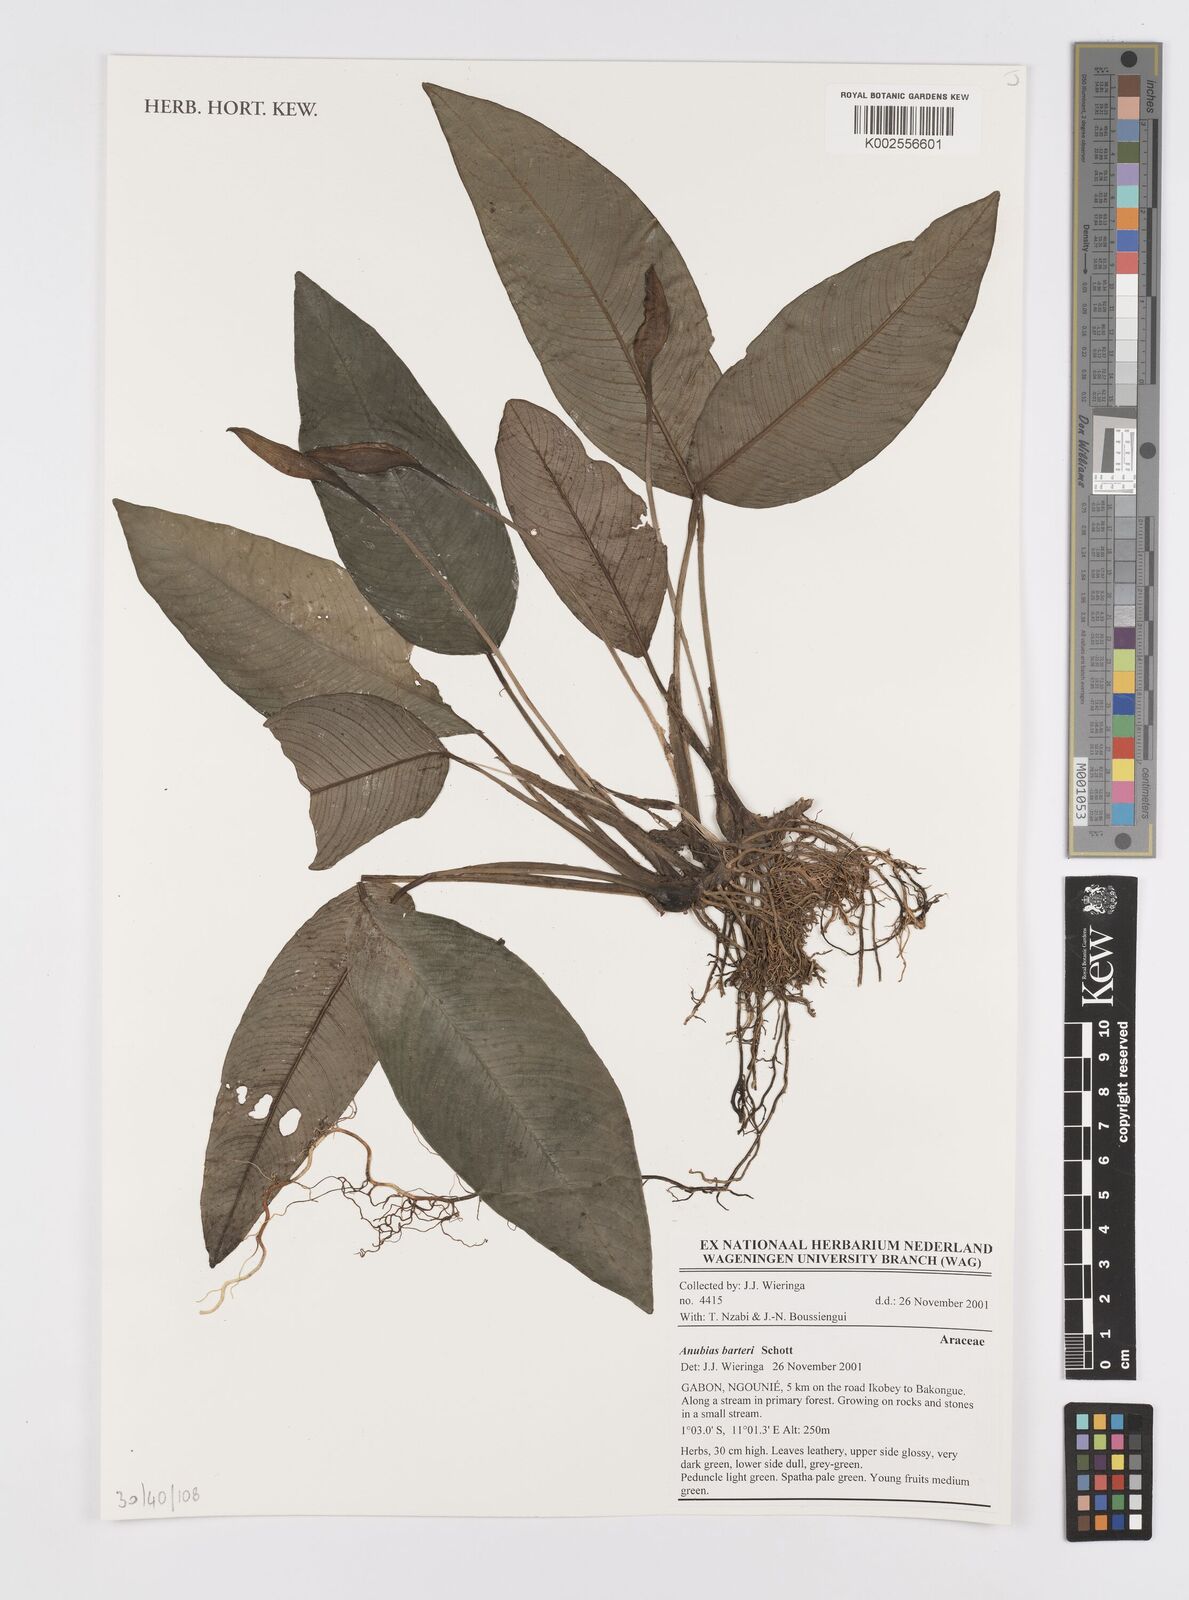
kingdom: Plantae
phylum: Tracheophyta
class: Liliopsida
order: Alismatales
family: Araceae
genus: Anubias
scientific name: Anubias barteri
